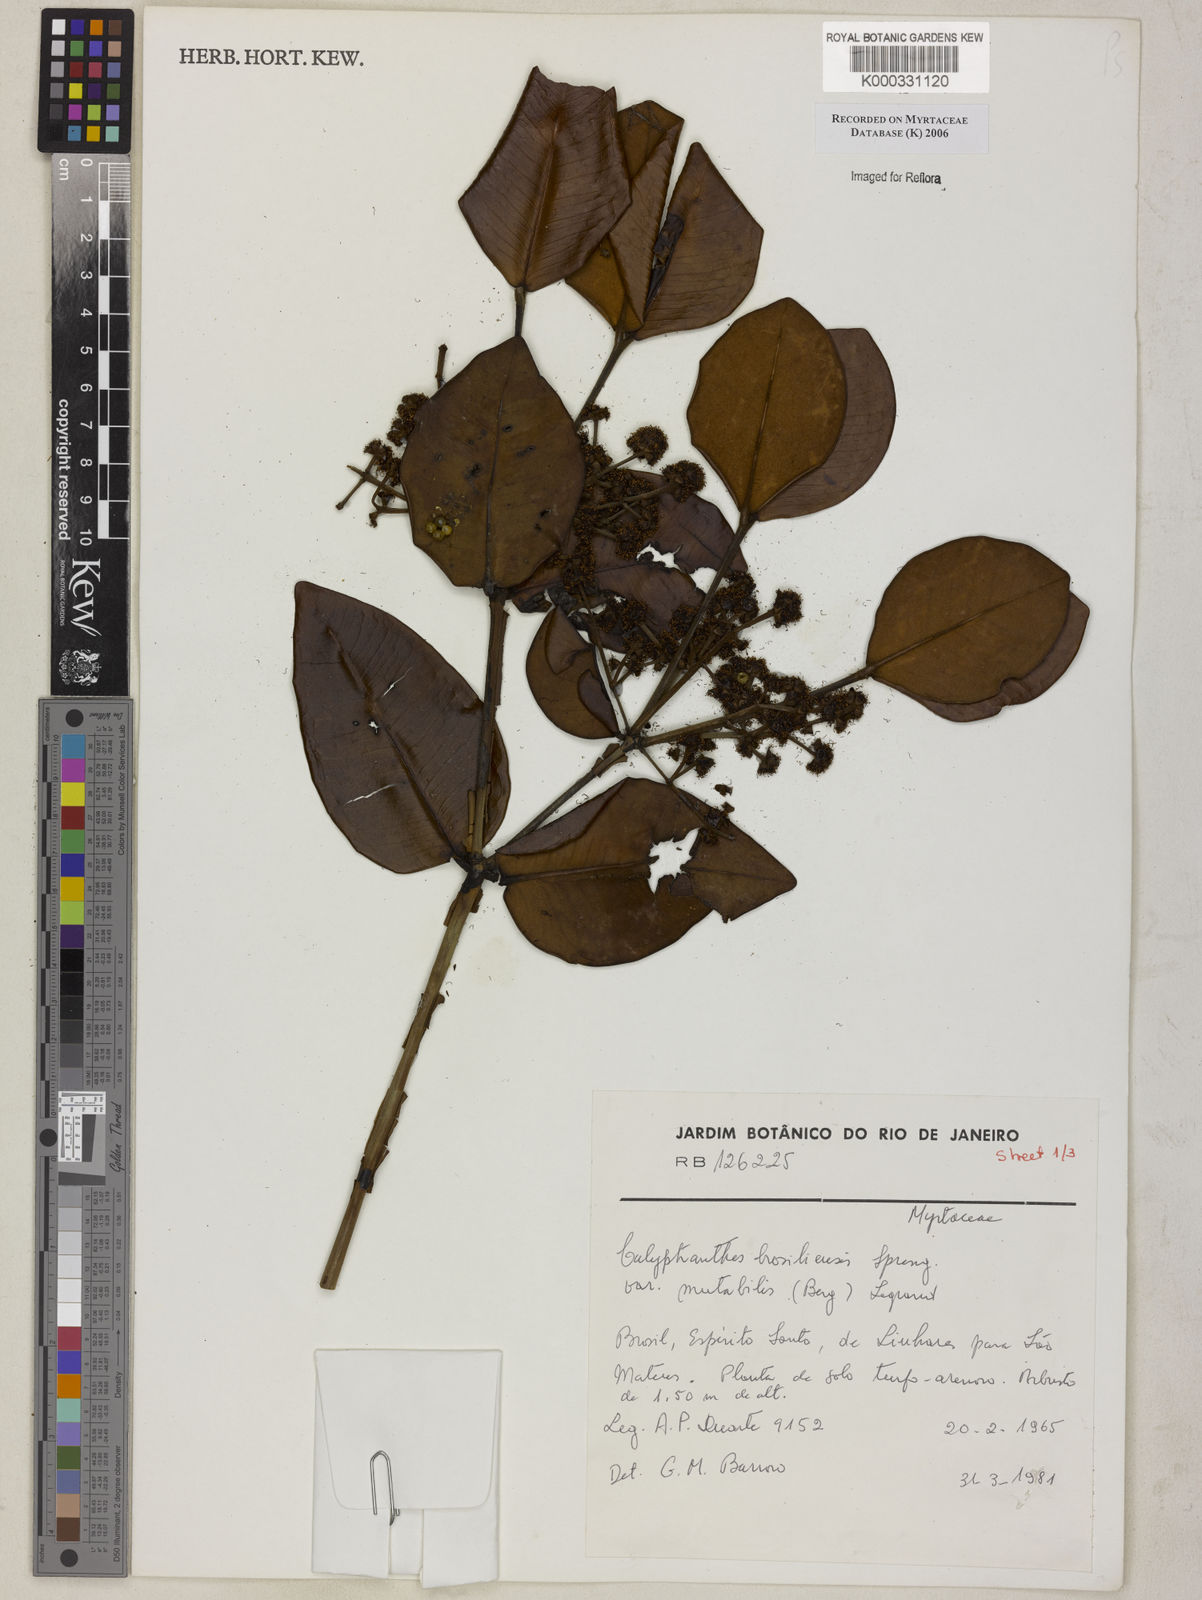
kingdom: Plantae
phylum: Tracheophyta
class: Magnoliopsida
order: Myrtales
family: Myrtaceae
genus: Myrcia
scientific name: Myrcia neobrasiliensis
